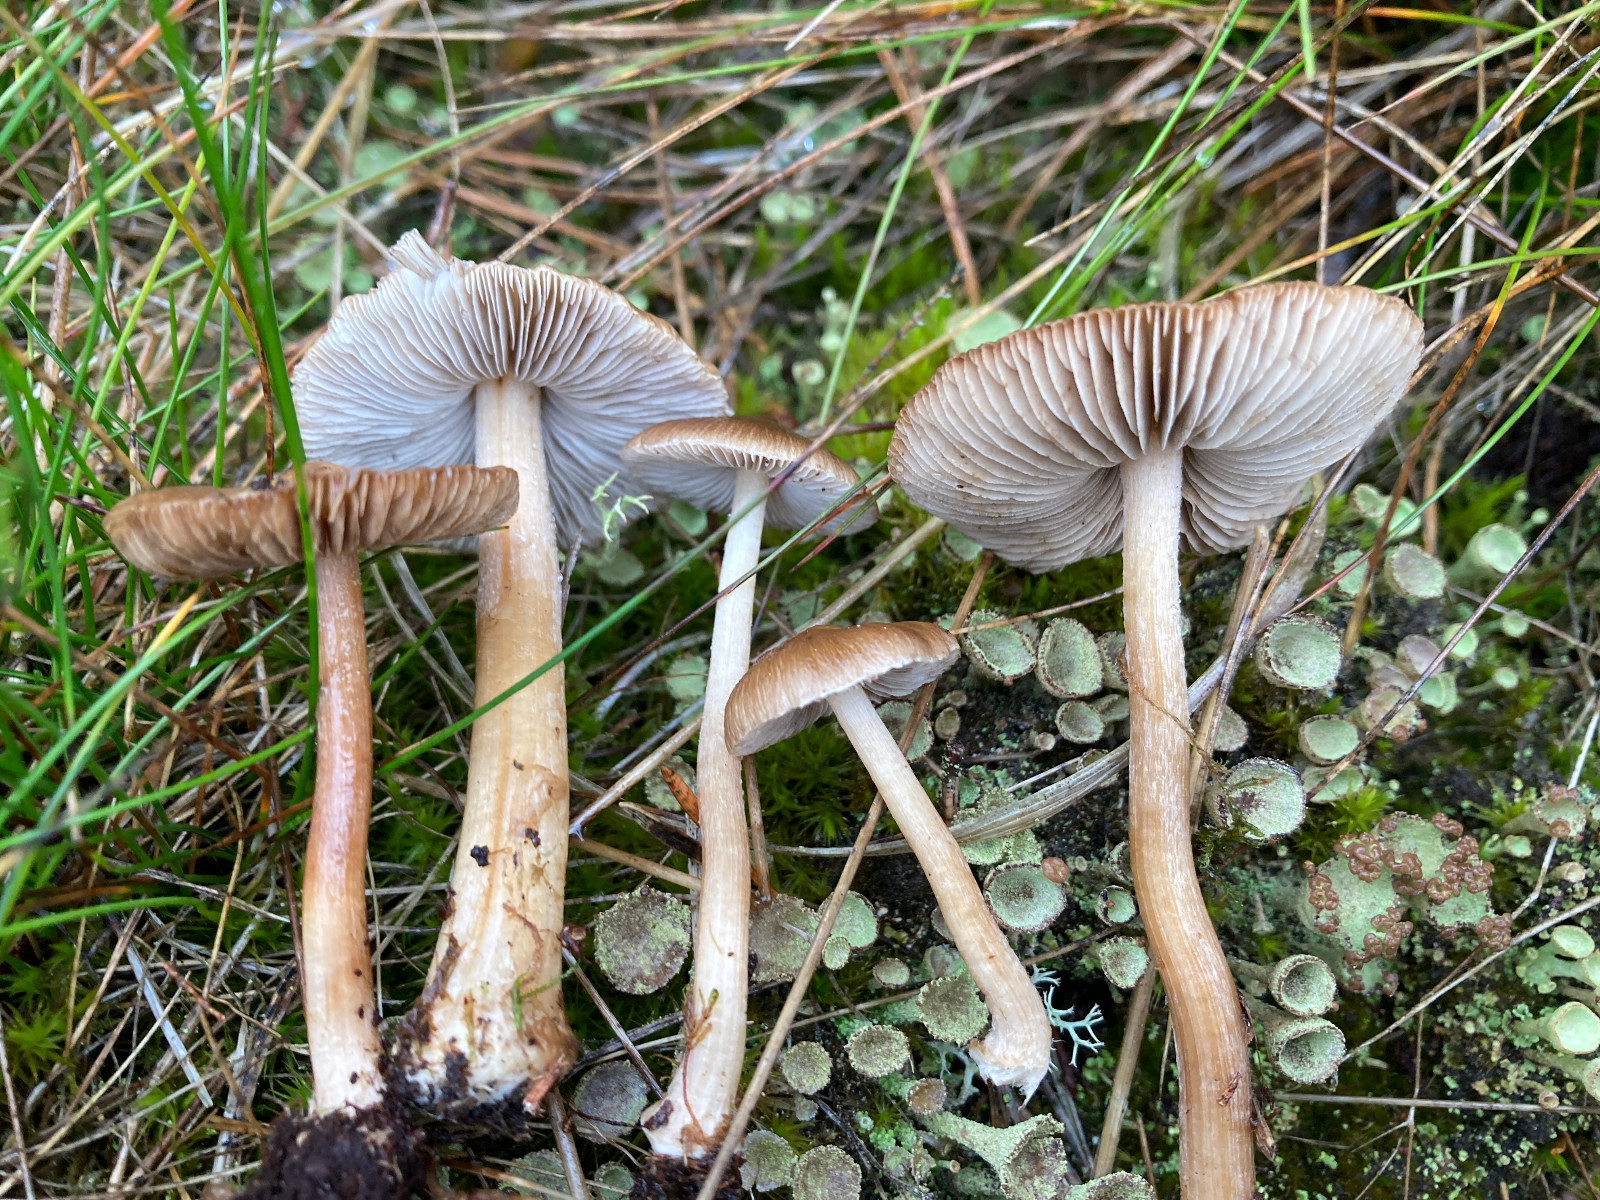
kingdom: Fungi
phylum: Basidiomycota
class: Agaricomycetes
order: Agaricales
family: Inocybaceae
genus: Inocybe
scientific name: Inocybe napipes
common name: roeknoldet trævlhat
